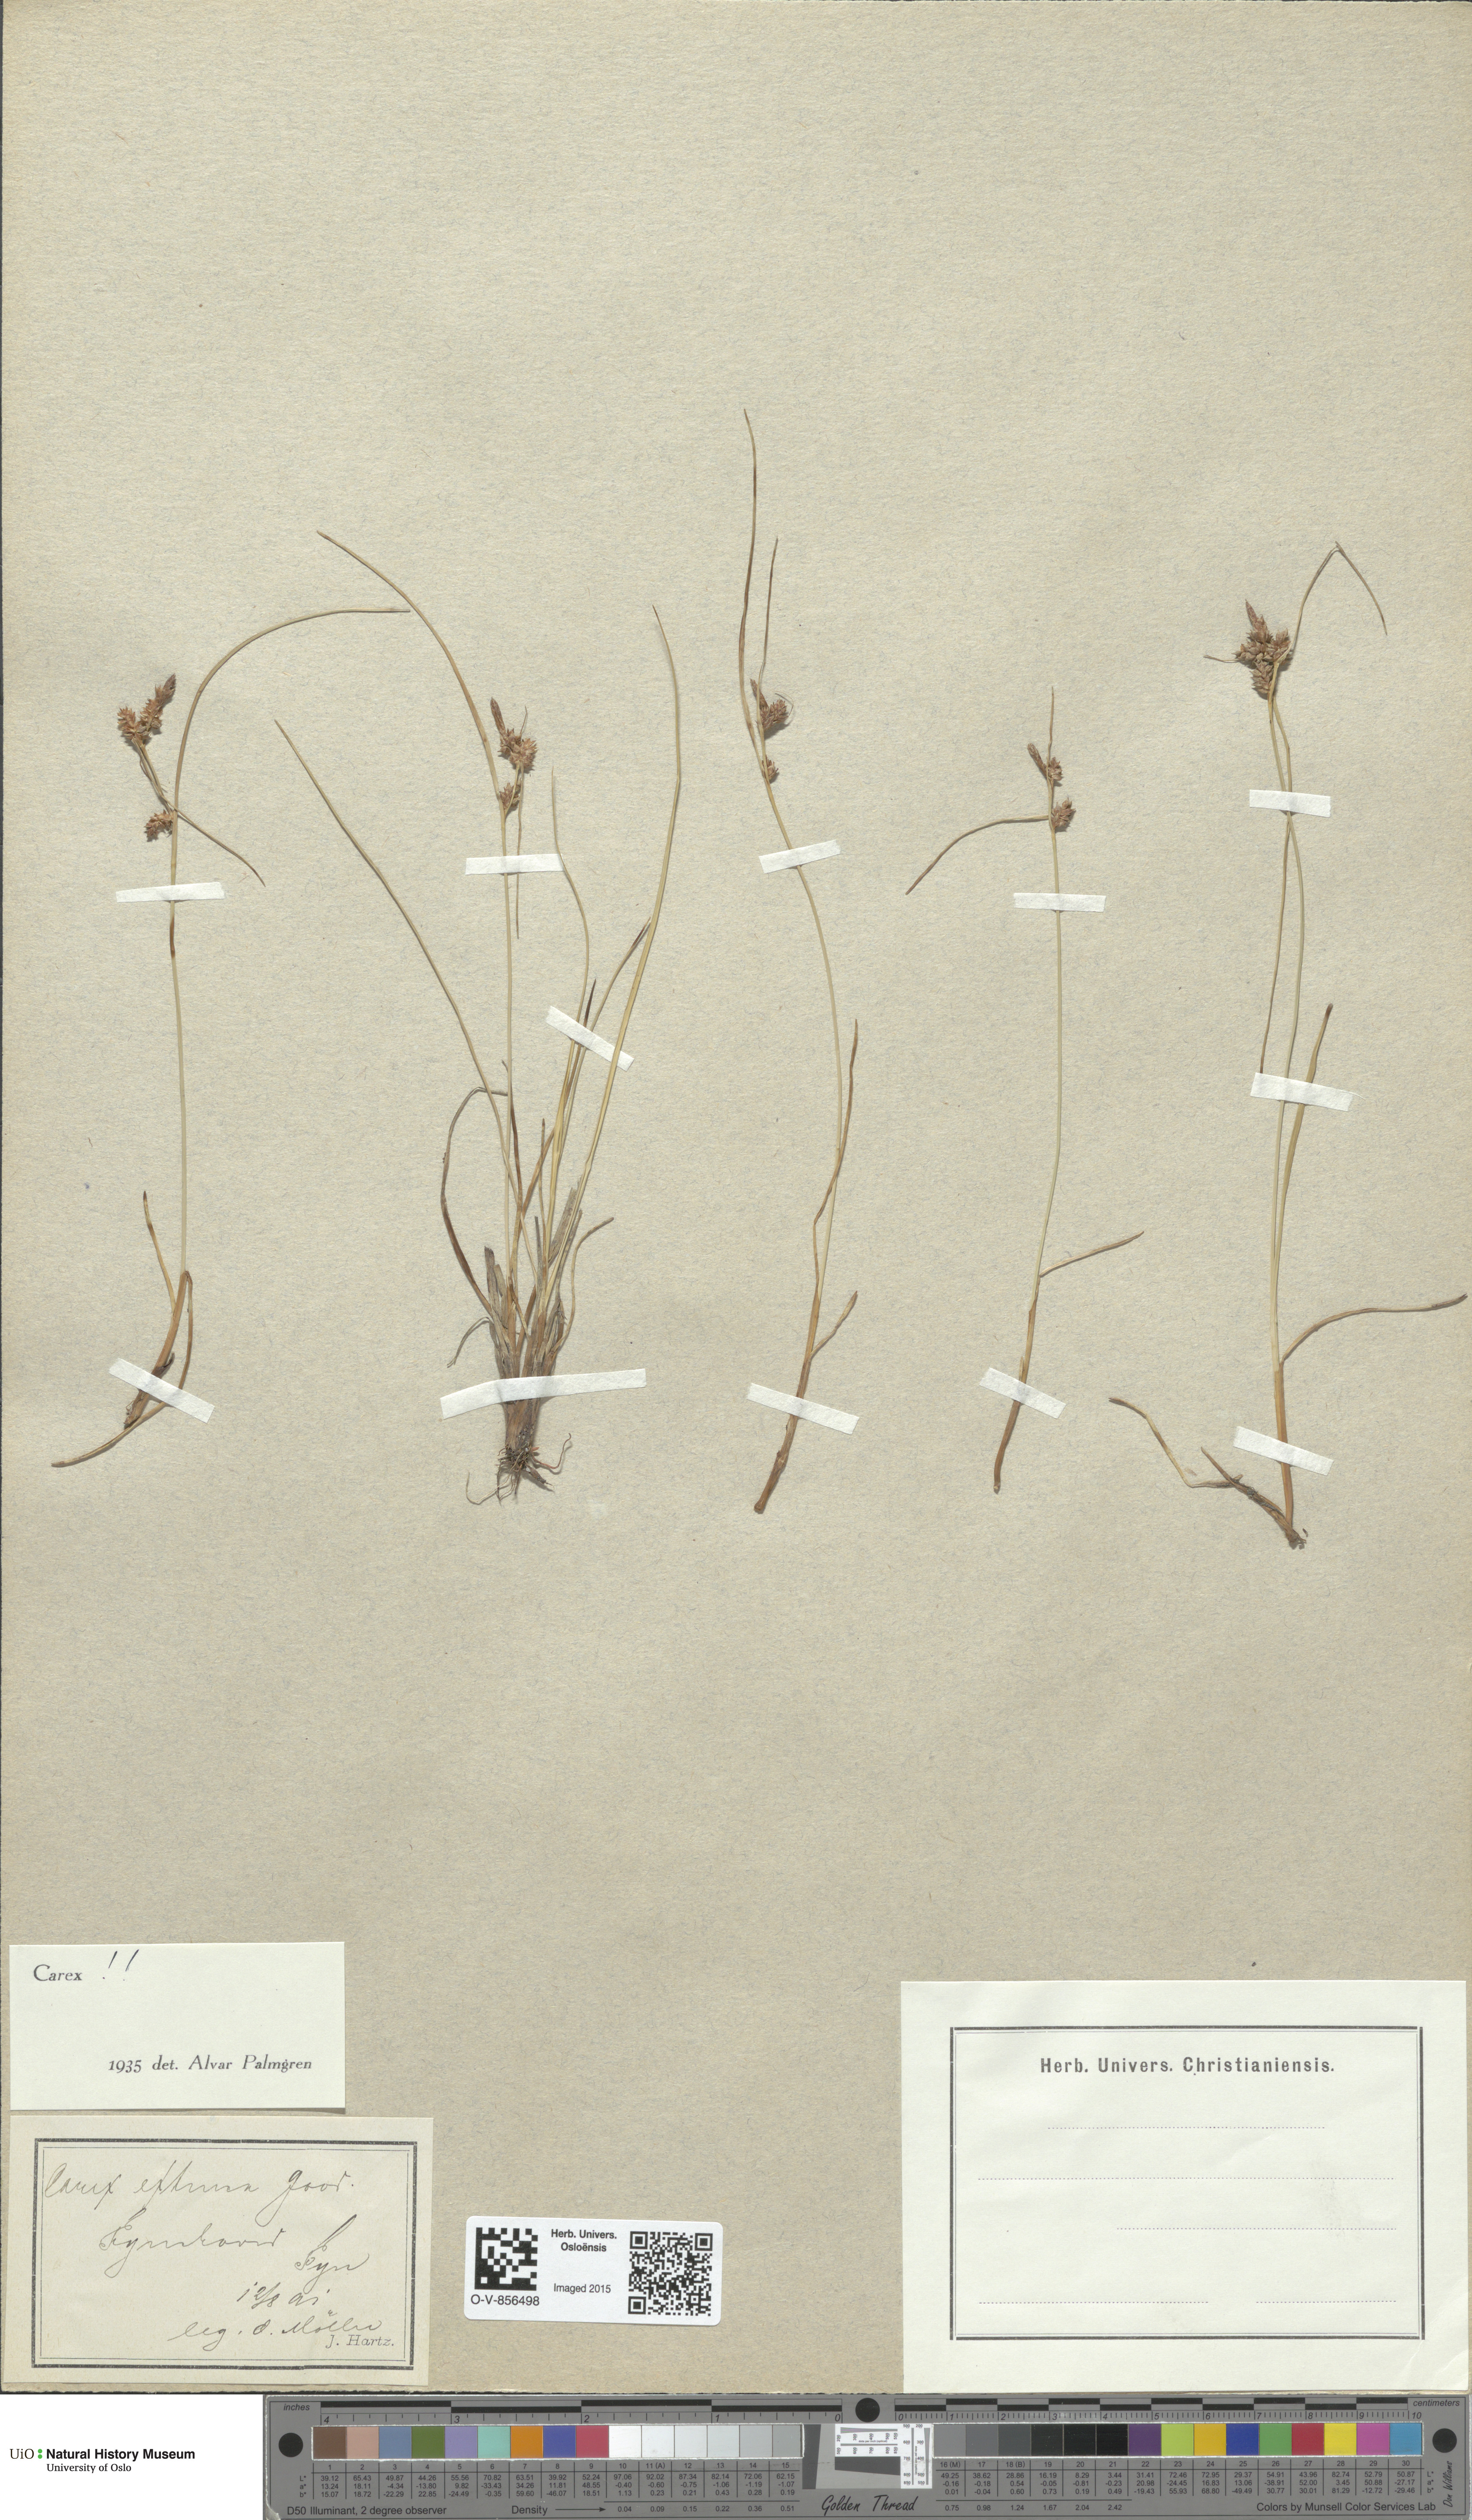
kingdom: Plantae
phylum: Tracheophyta
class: Liliopsida
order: Poales
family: Cyperaceae
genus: Carex
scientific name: Carex extensa
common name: Long-bracted sedge
